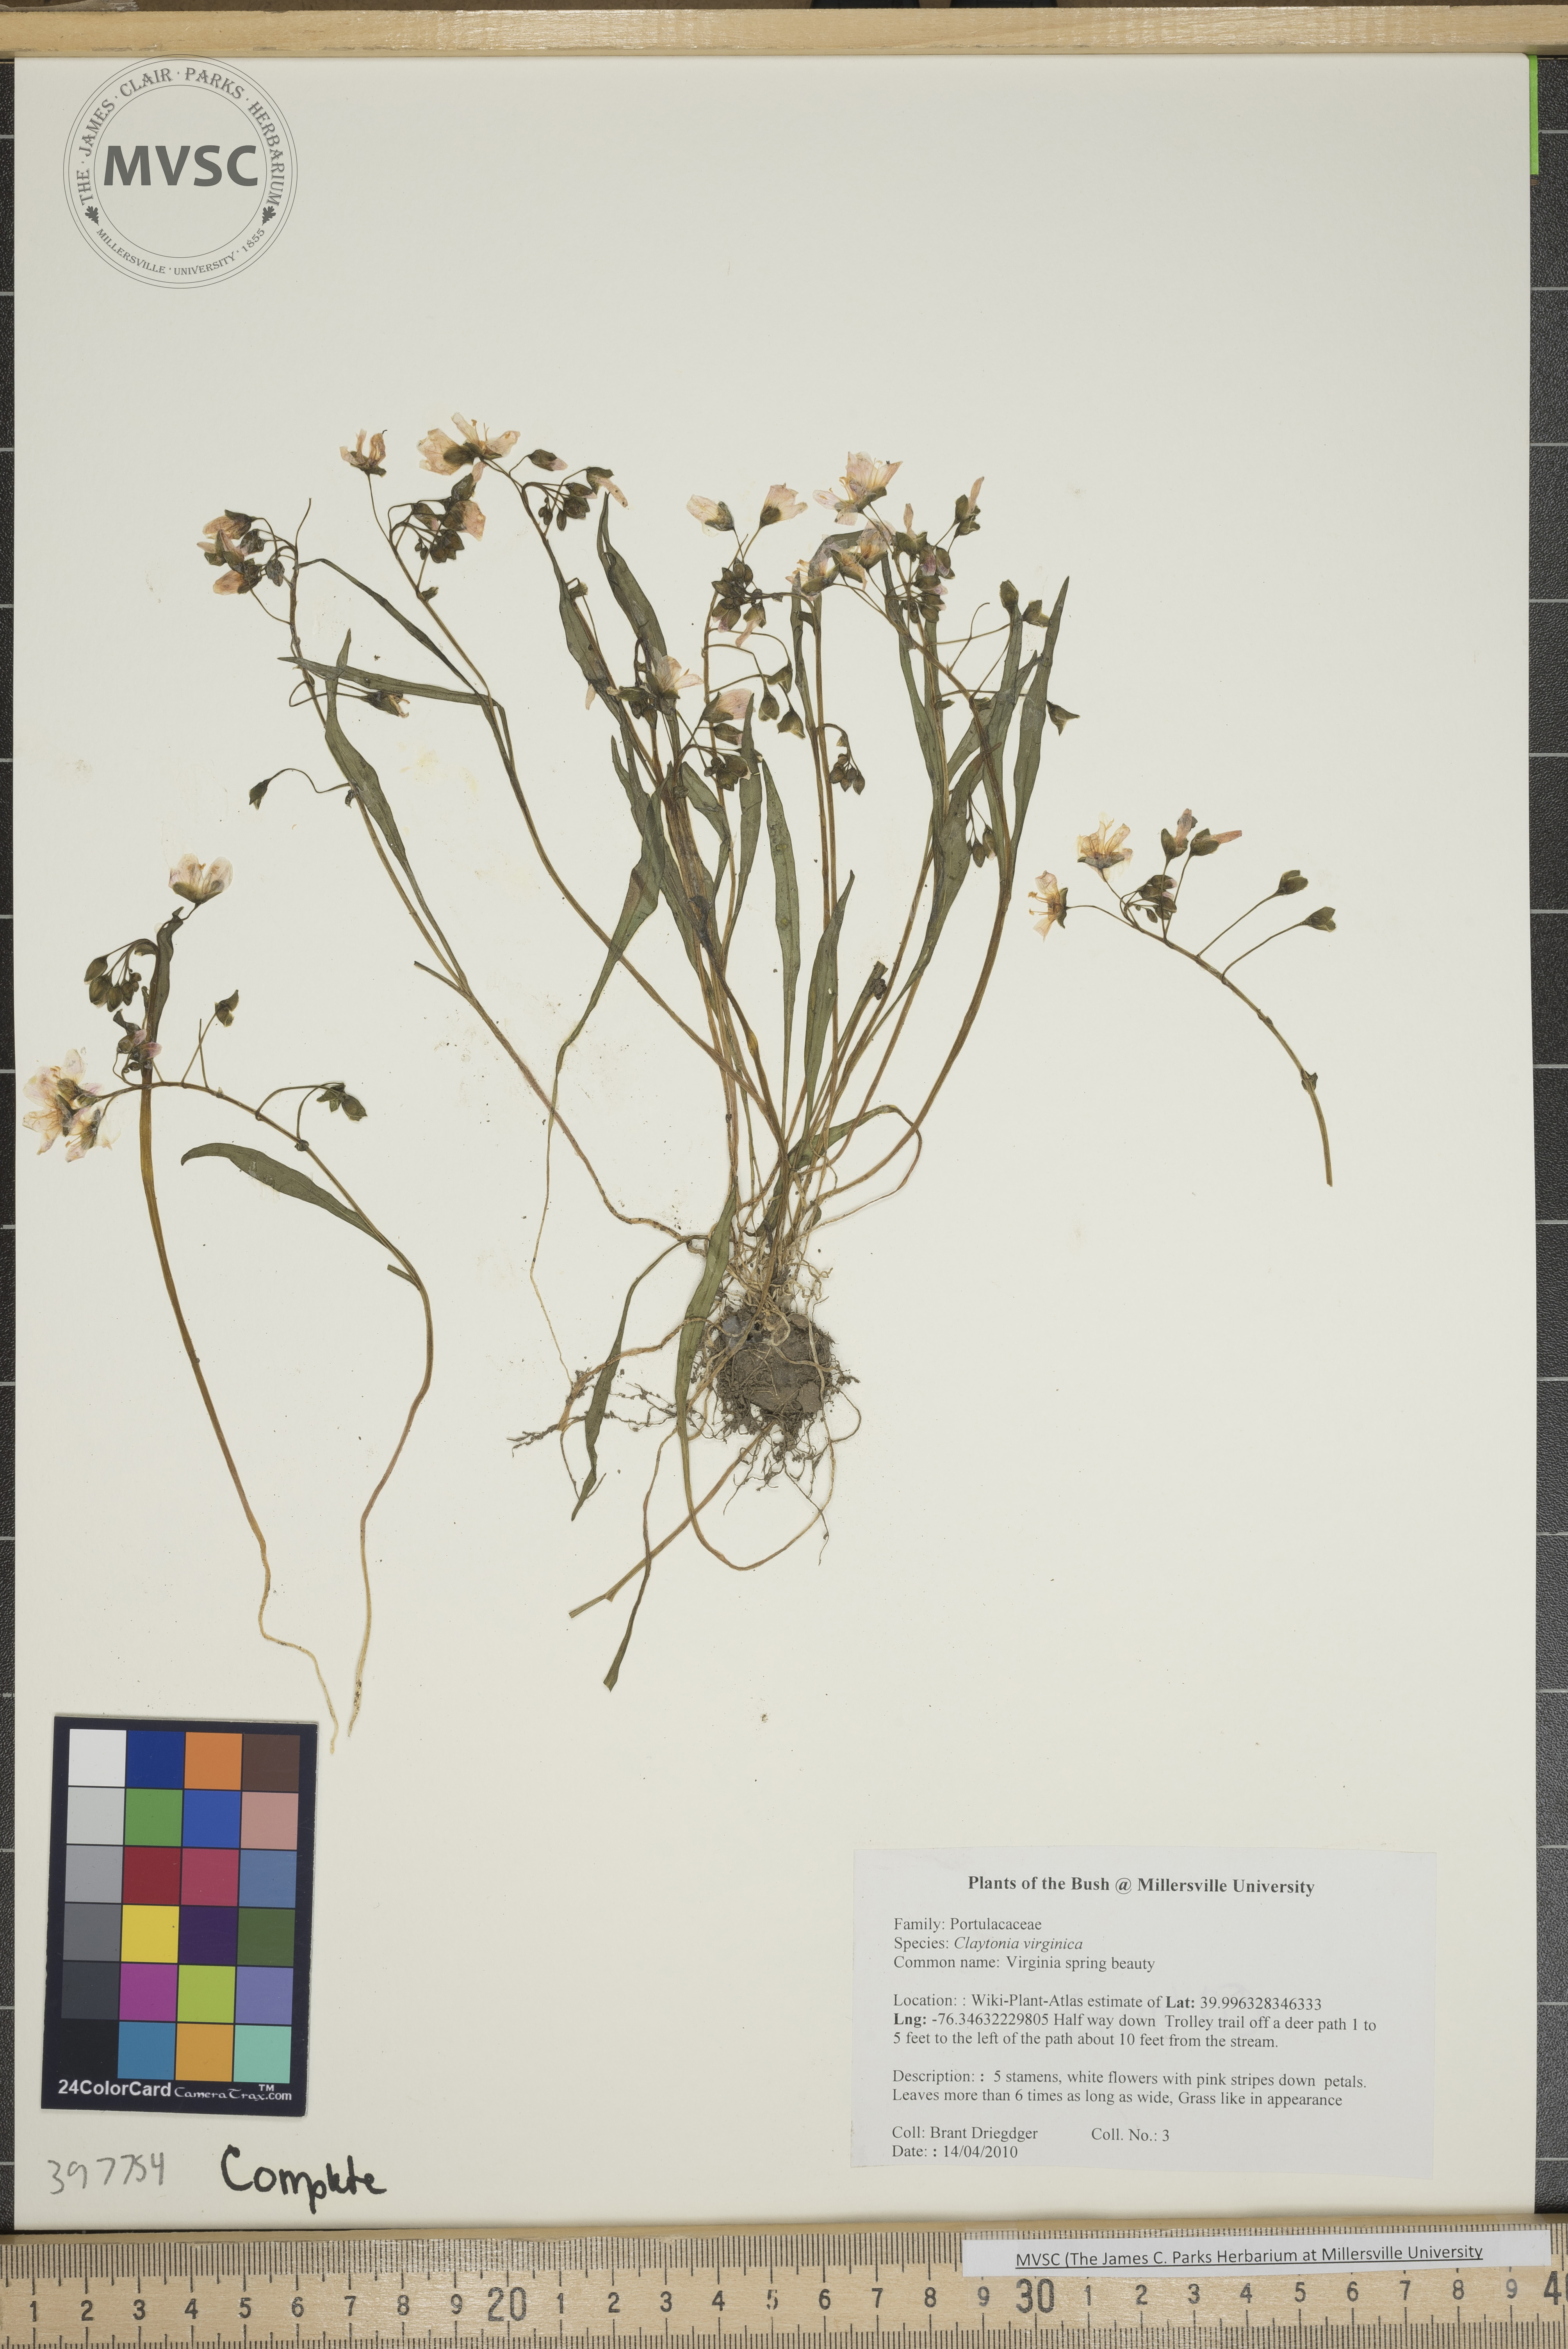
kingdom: Plantae
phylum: Tracheophyta
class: Magnoliopsida
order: Caryophyllales
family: Montiaceae
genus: Claytonia
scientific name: Claytonia virginica
